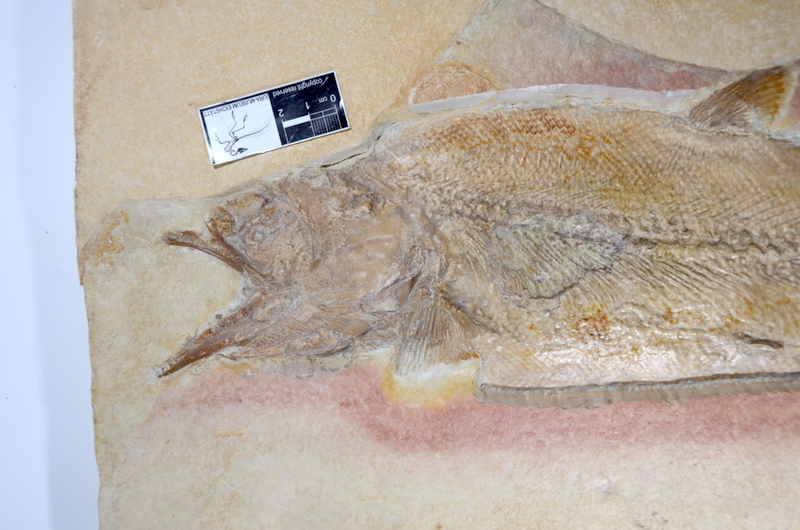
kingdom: Animalia
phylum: Chordata
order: Amiiformes
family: Caturidae
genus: Caturus
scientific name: Caturus furcatus
